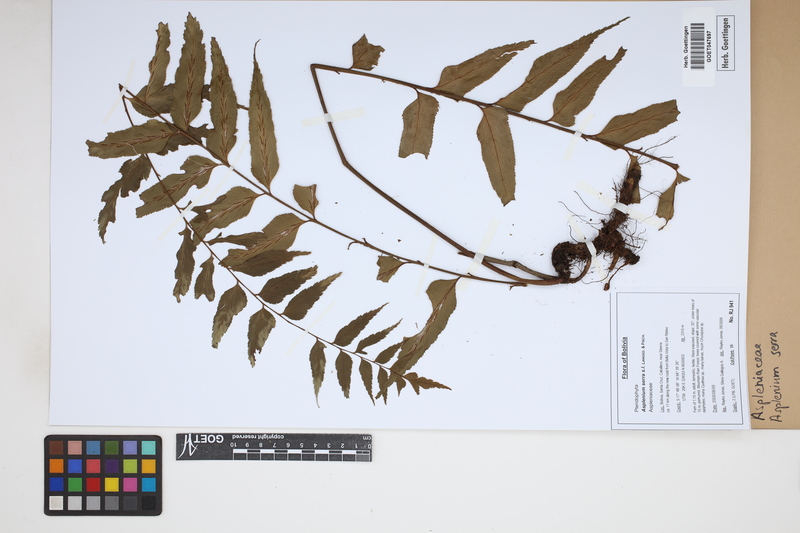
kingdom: Plantae
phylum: Tracheophyta
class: Polypodiopsida
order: Polypodiales
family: Aspleniaceae
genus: Asplenium
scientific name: Asplenium serra
